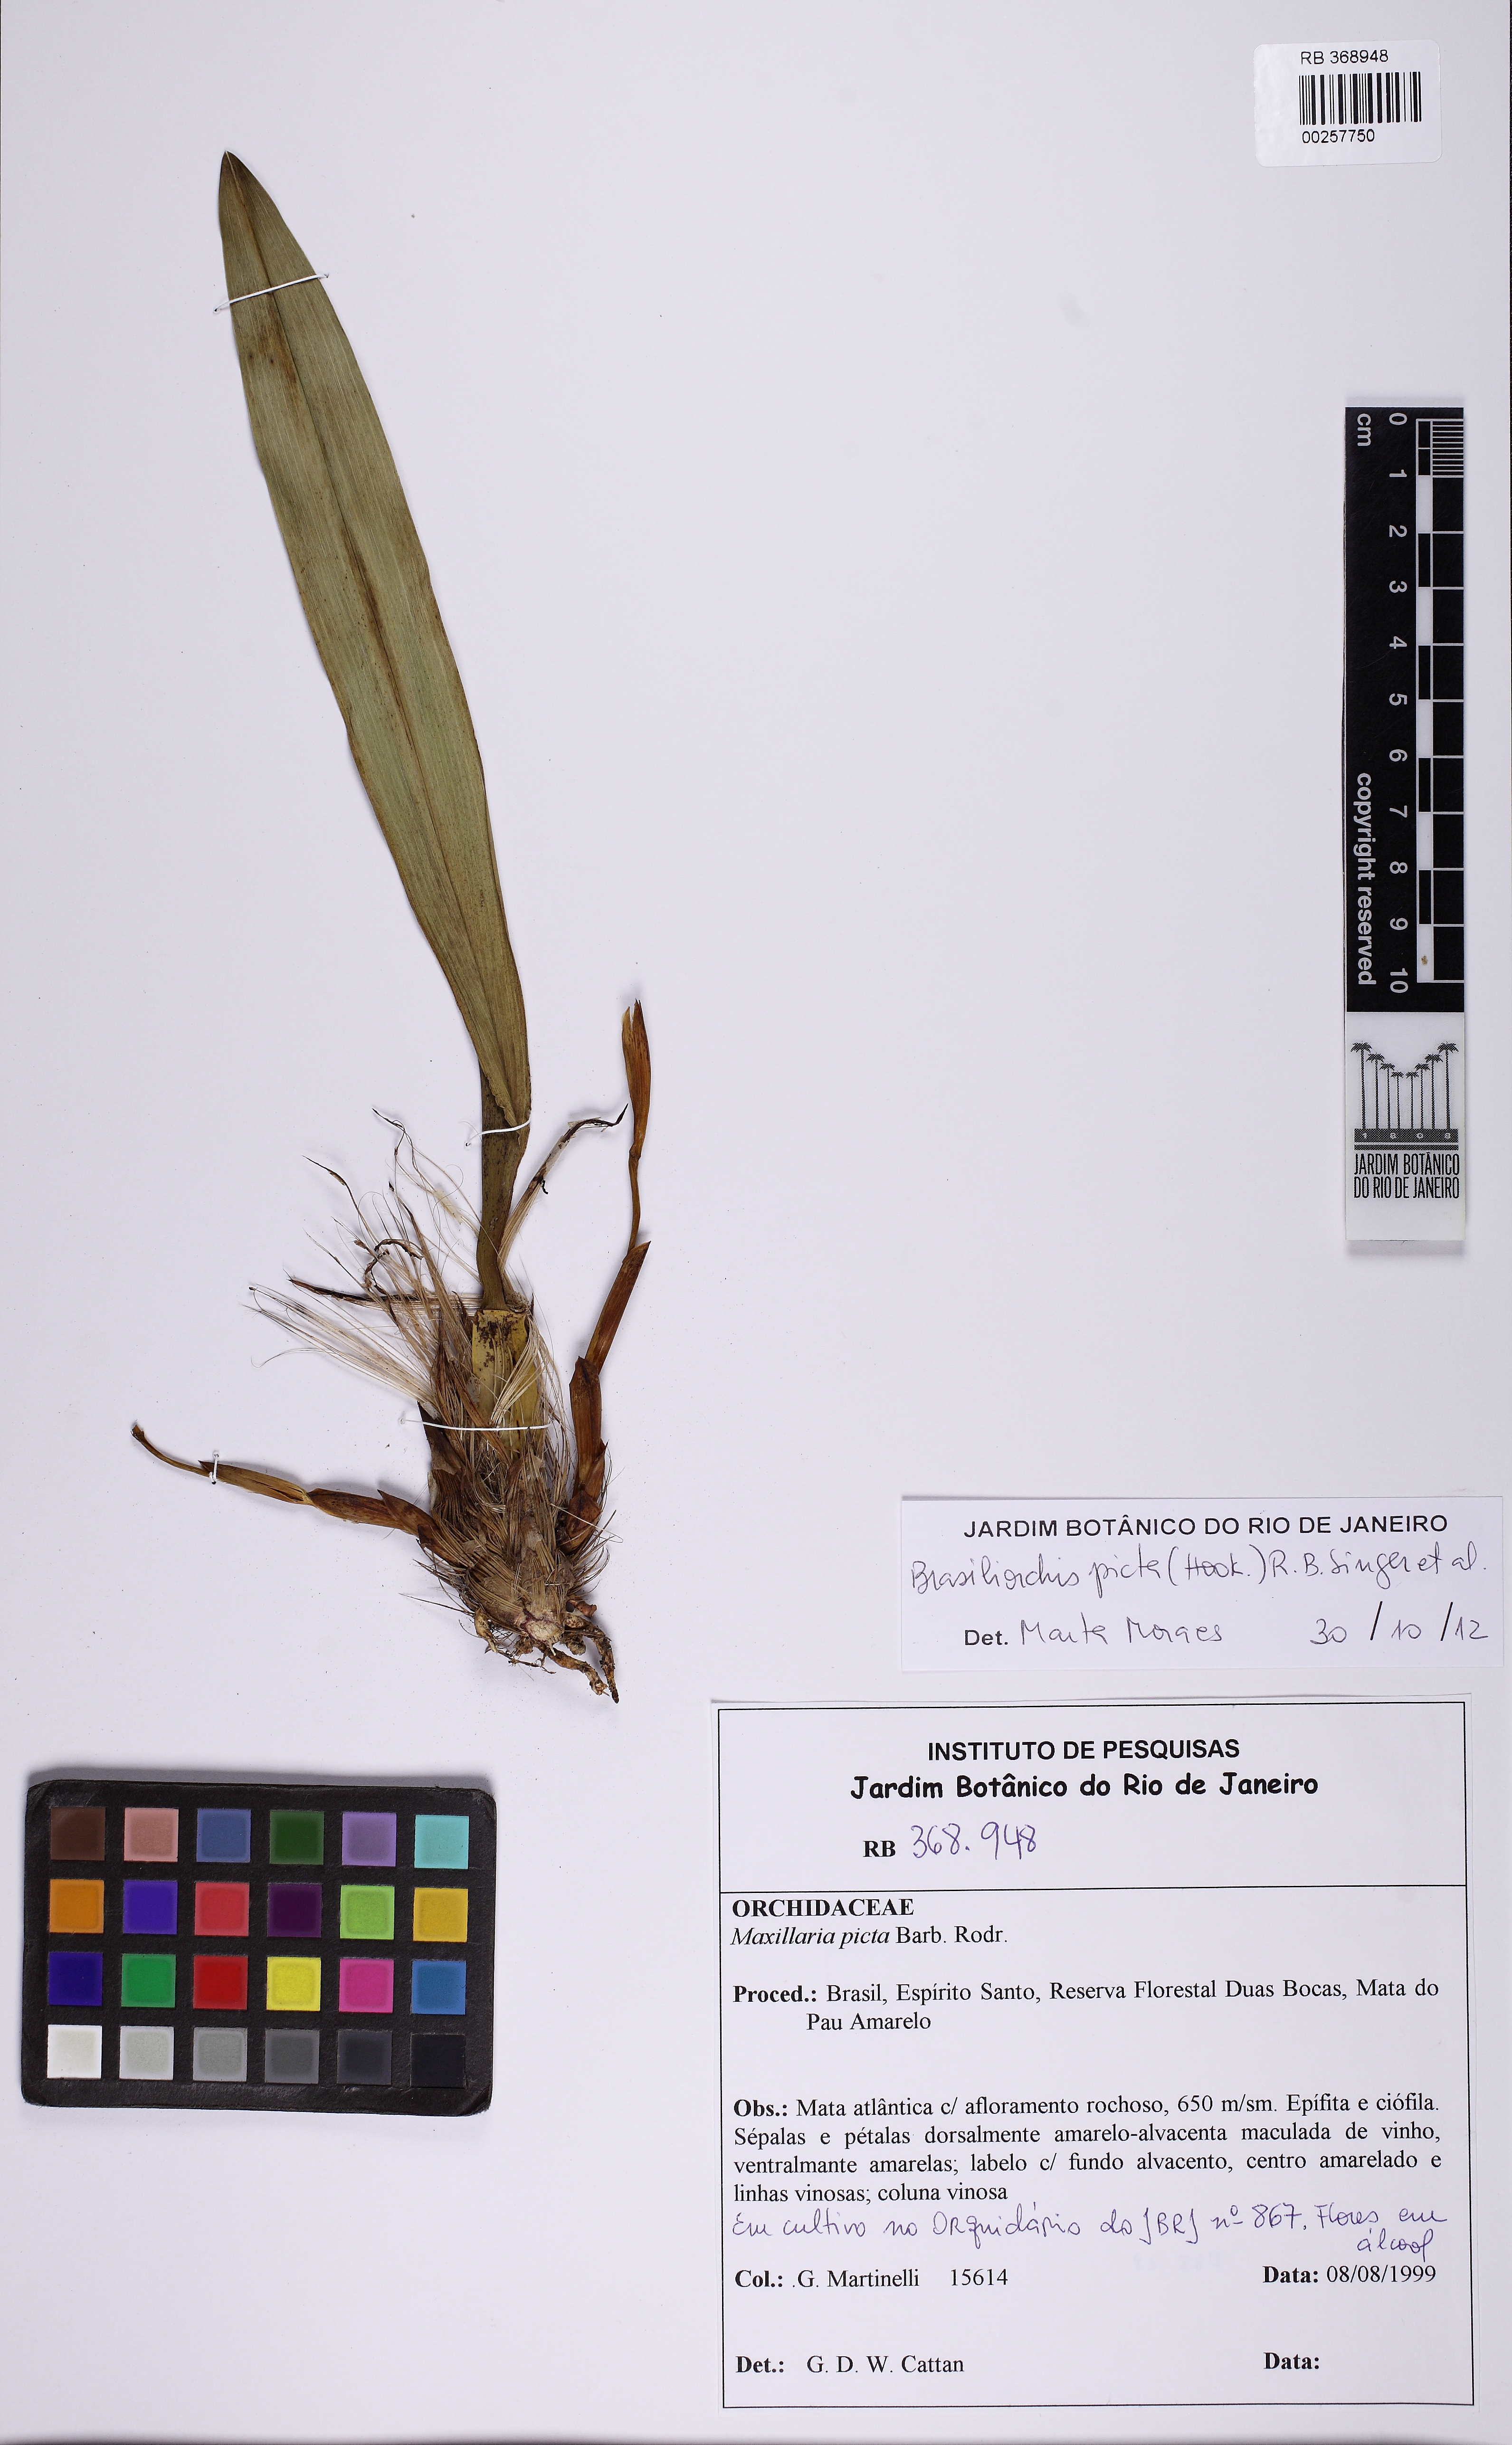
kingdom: Plantae
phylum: Tracheophyta
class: Liliopsida
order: Asparagales
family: Orchidaceae
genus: Maxillaria
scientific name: Maxillaria picta
